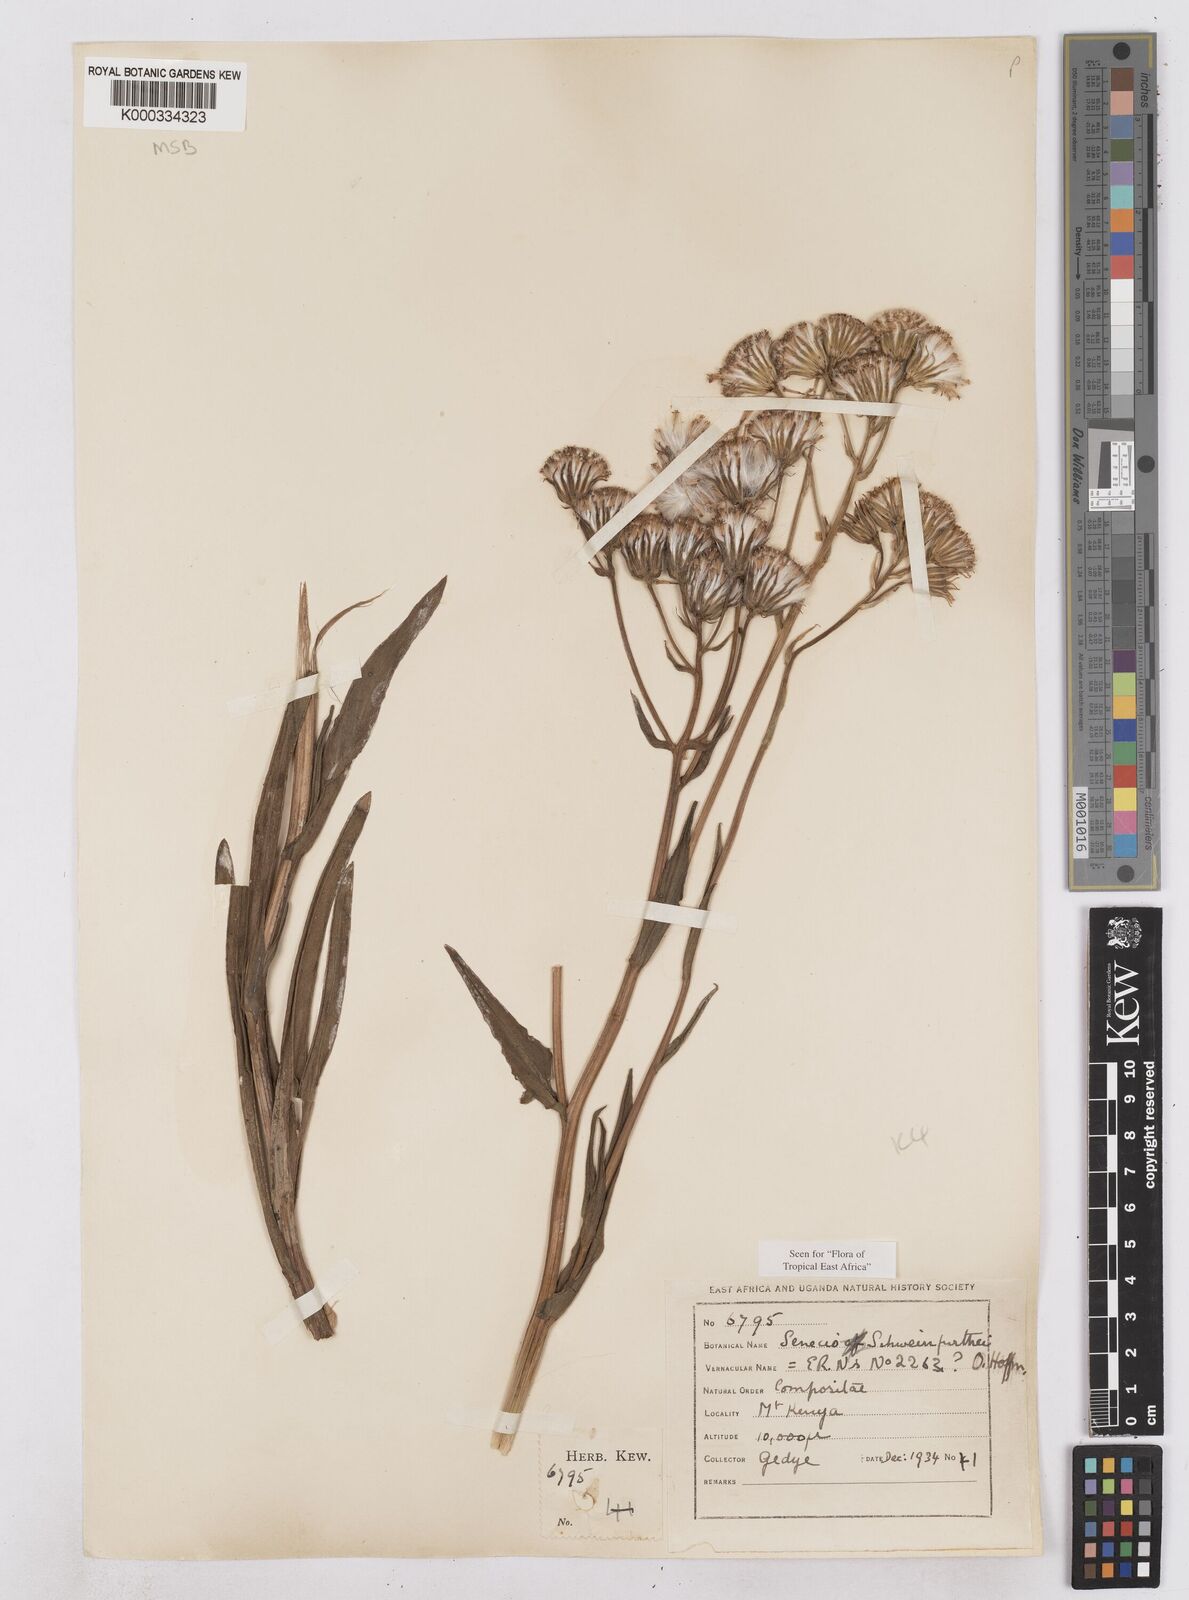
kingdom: Plantae
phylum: Tracheophyta
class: Magnoliopsida
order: Asterales
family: Asteraceae
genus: Senecio
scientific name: Senecio schweinfurthii
